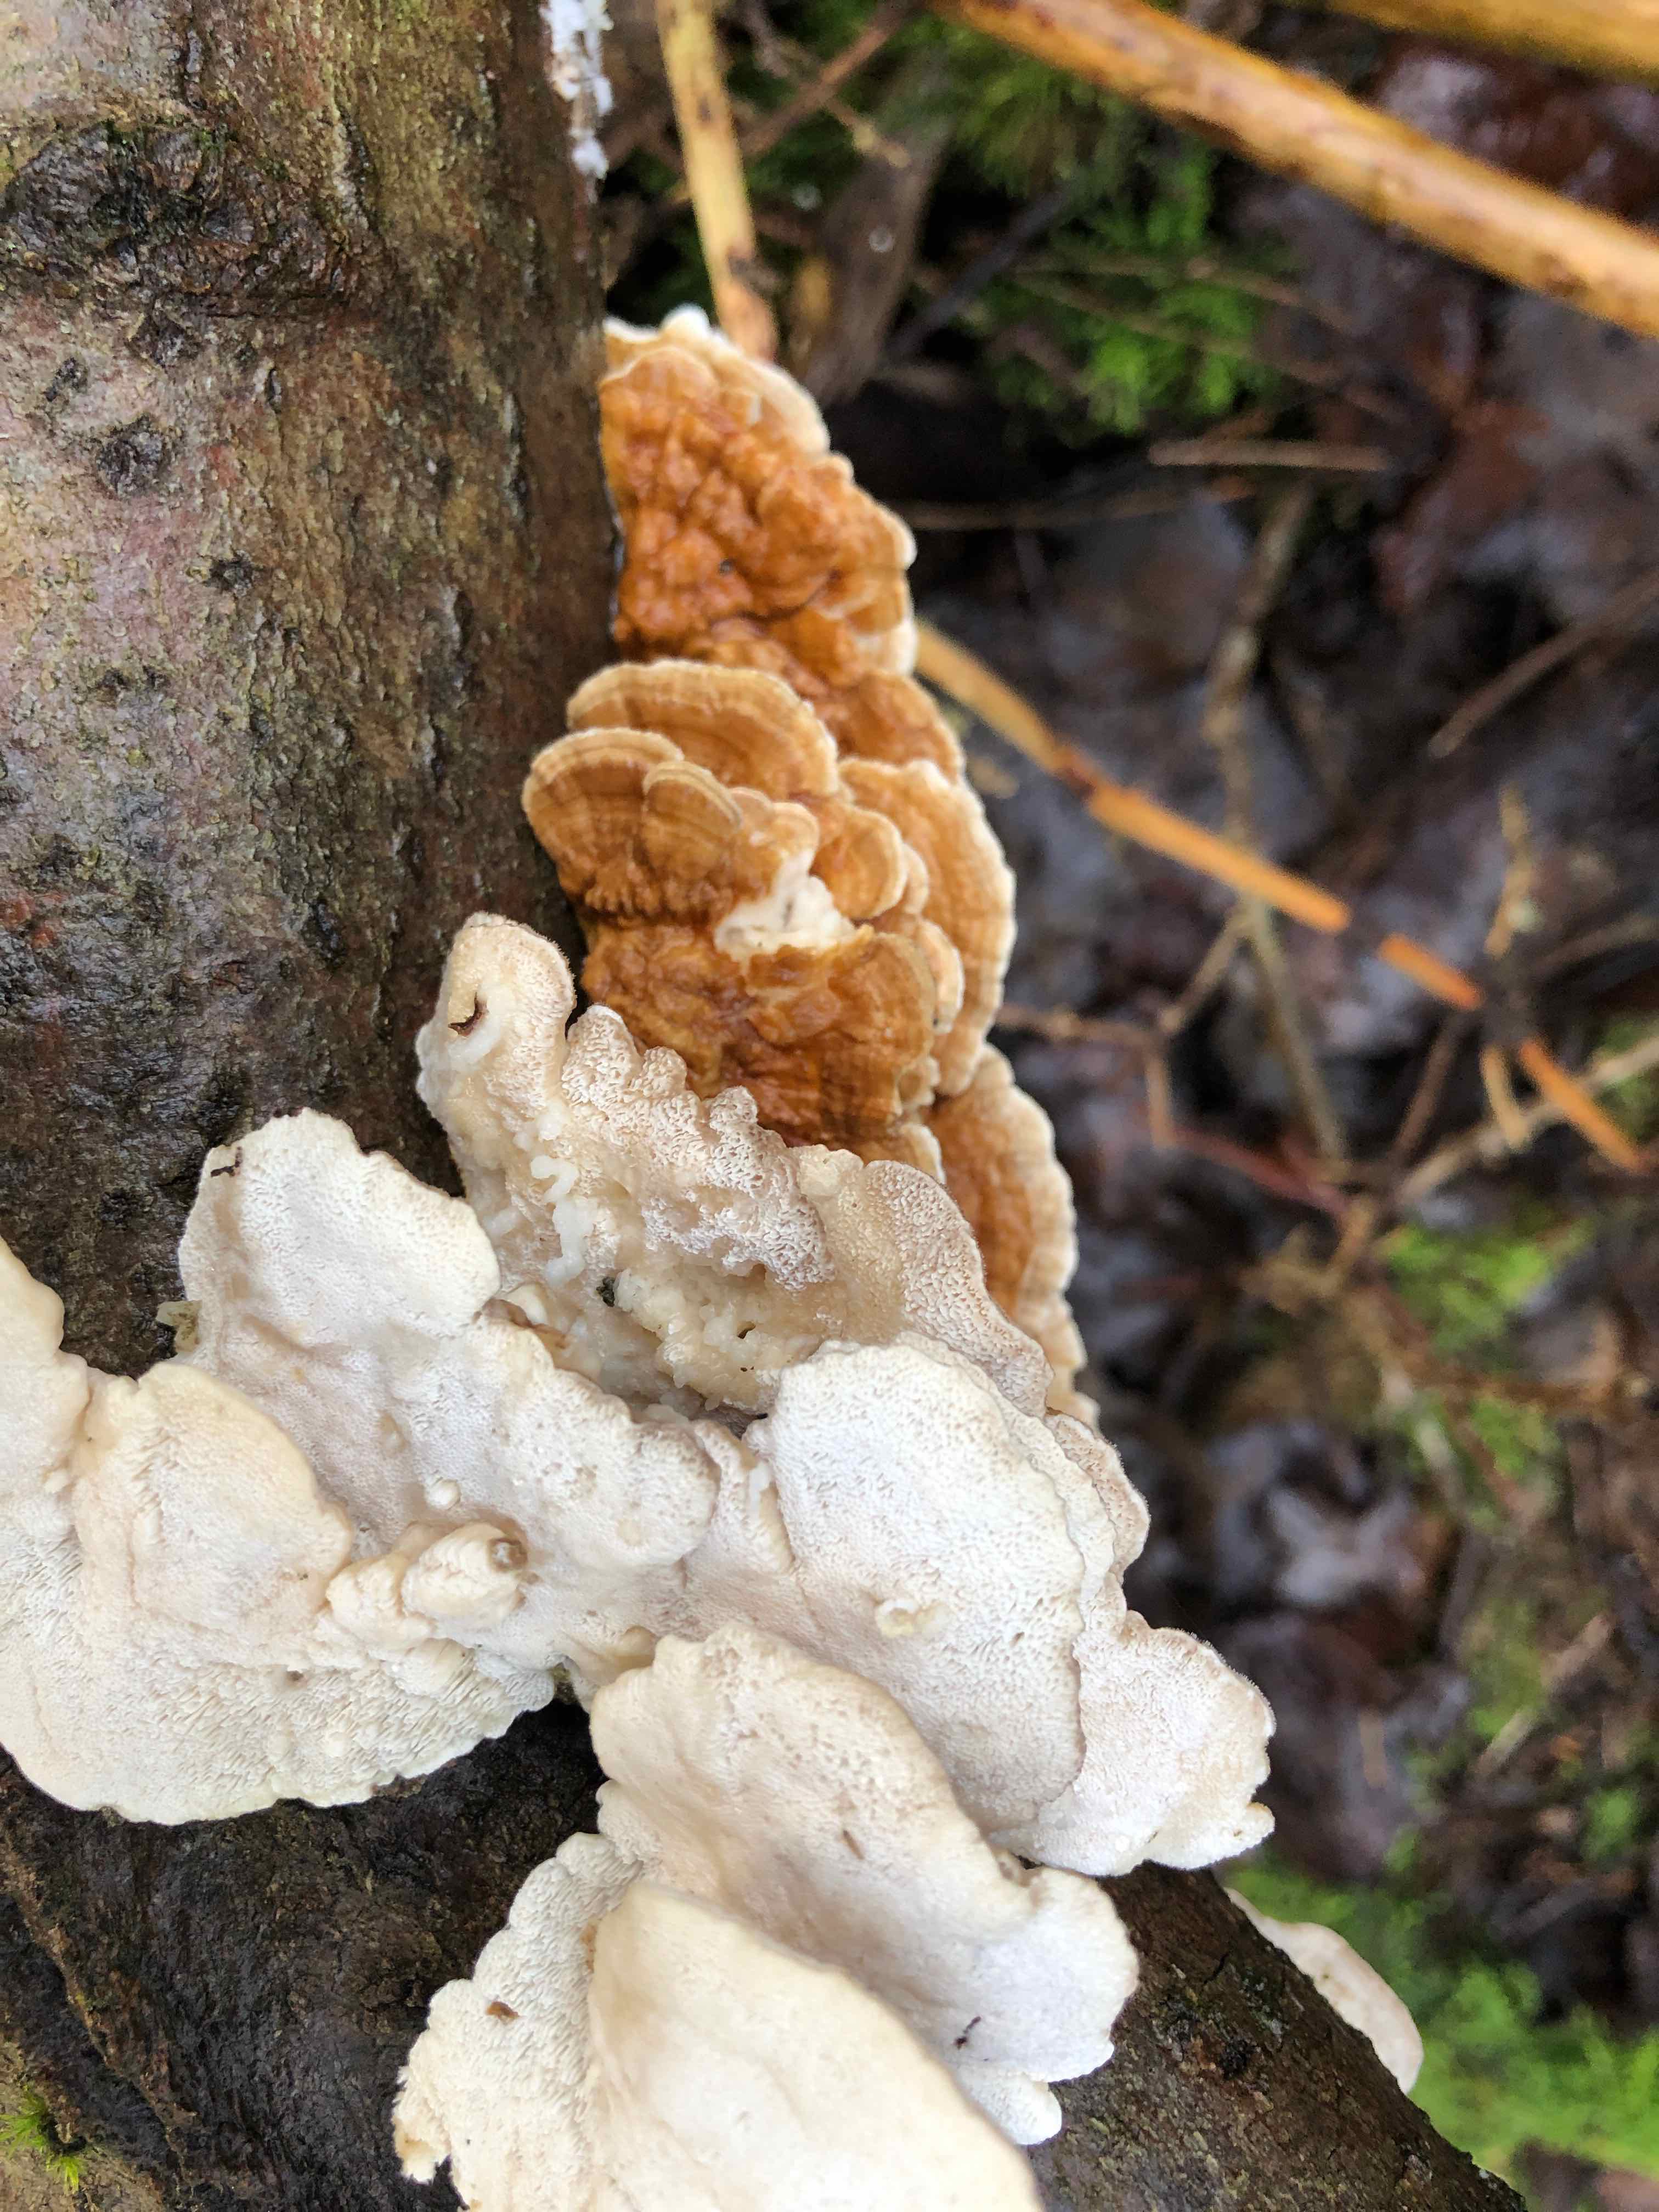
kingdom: Fungi
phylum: Basidiomycota
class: Agaricomycetes
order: Polyporales
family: Polyporaceae
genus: Trametes
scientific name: Trametes ochracea
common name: bæltet læderporesvamp
